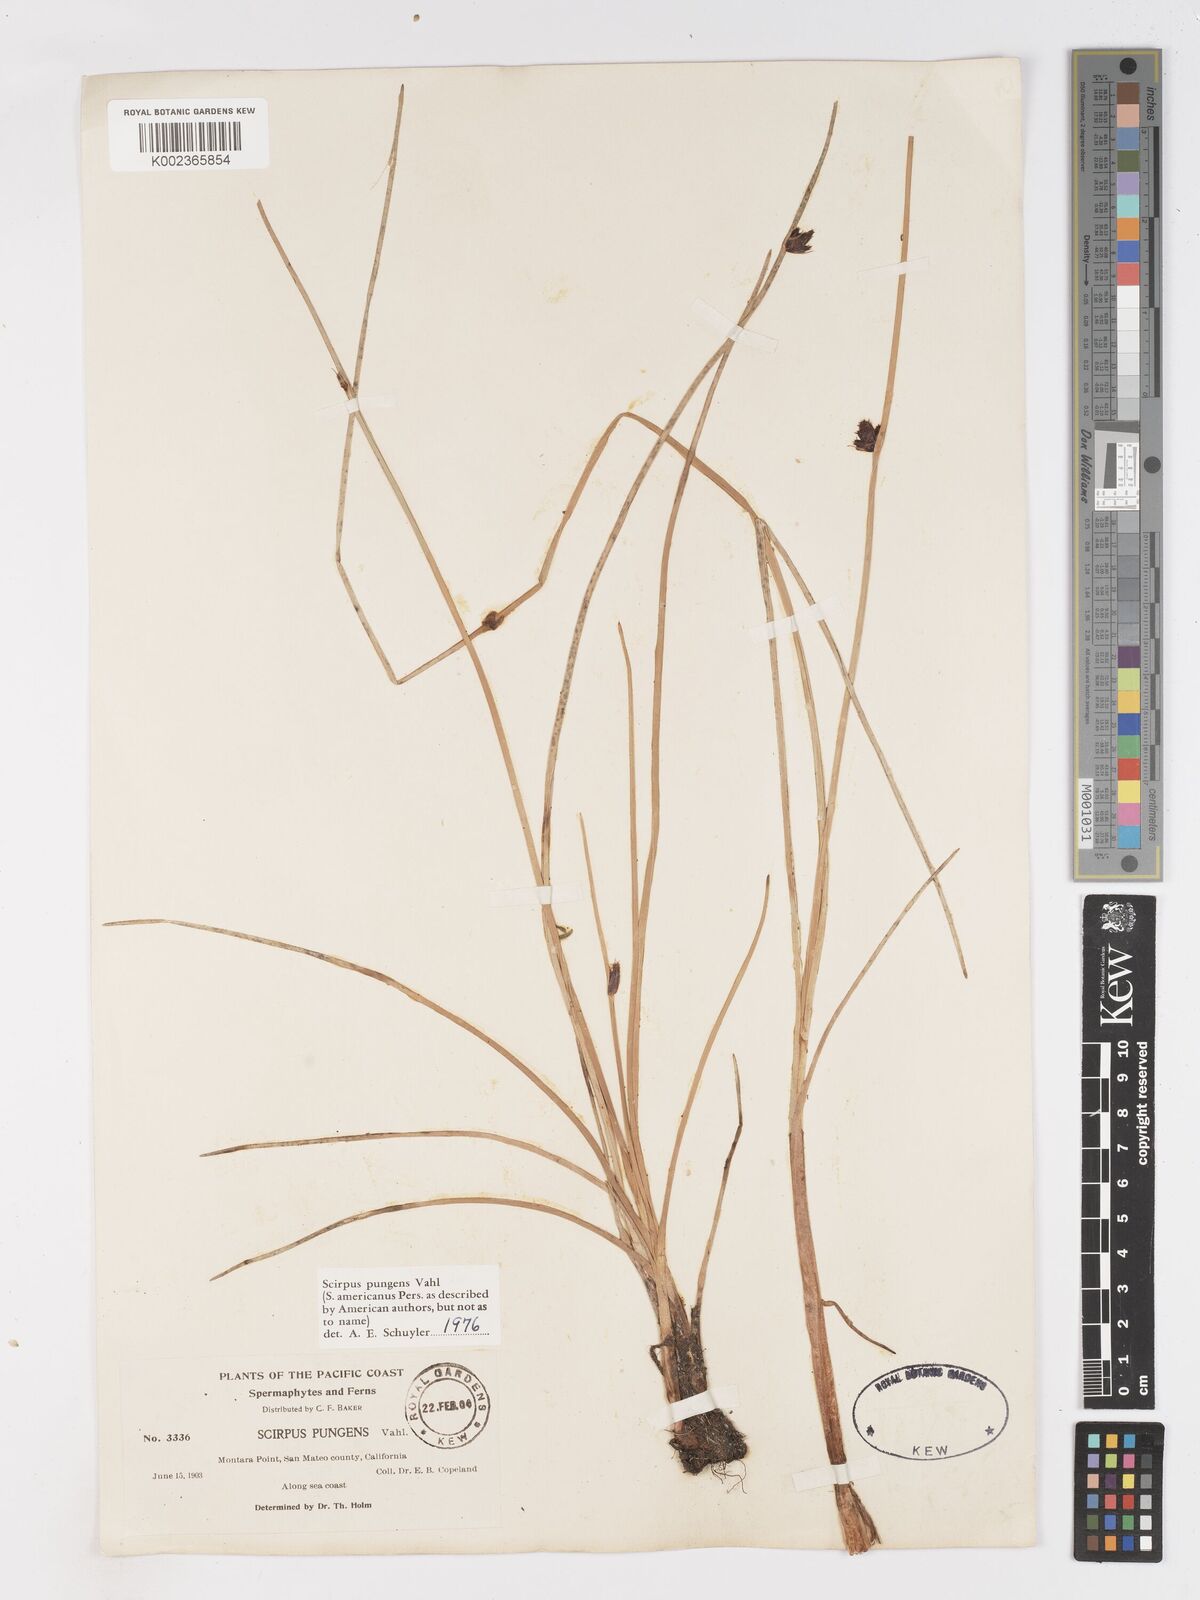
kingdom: Plantae
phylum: Tracheophyta
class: Liliopsida
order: Poales
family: Cyperaceae
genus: Schoenoplectus
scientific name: Schoenoplectus pungens
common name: Sharp club-rush
